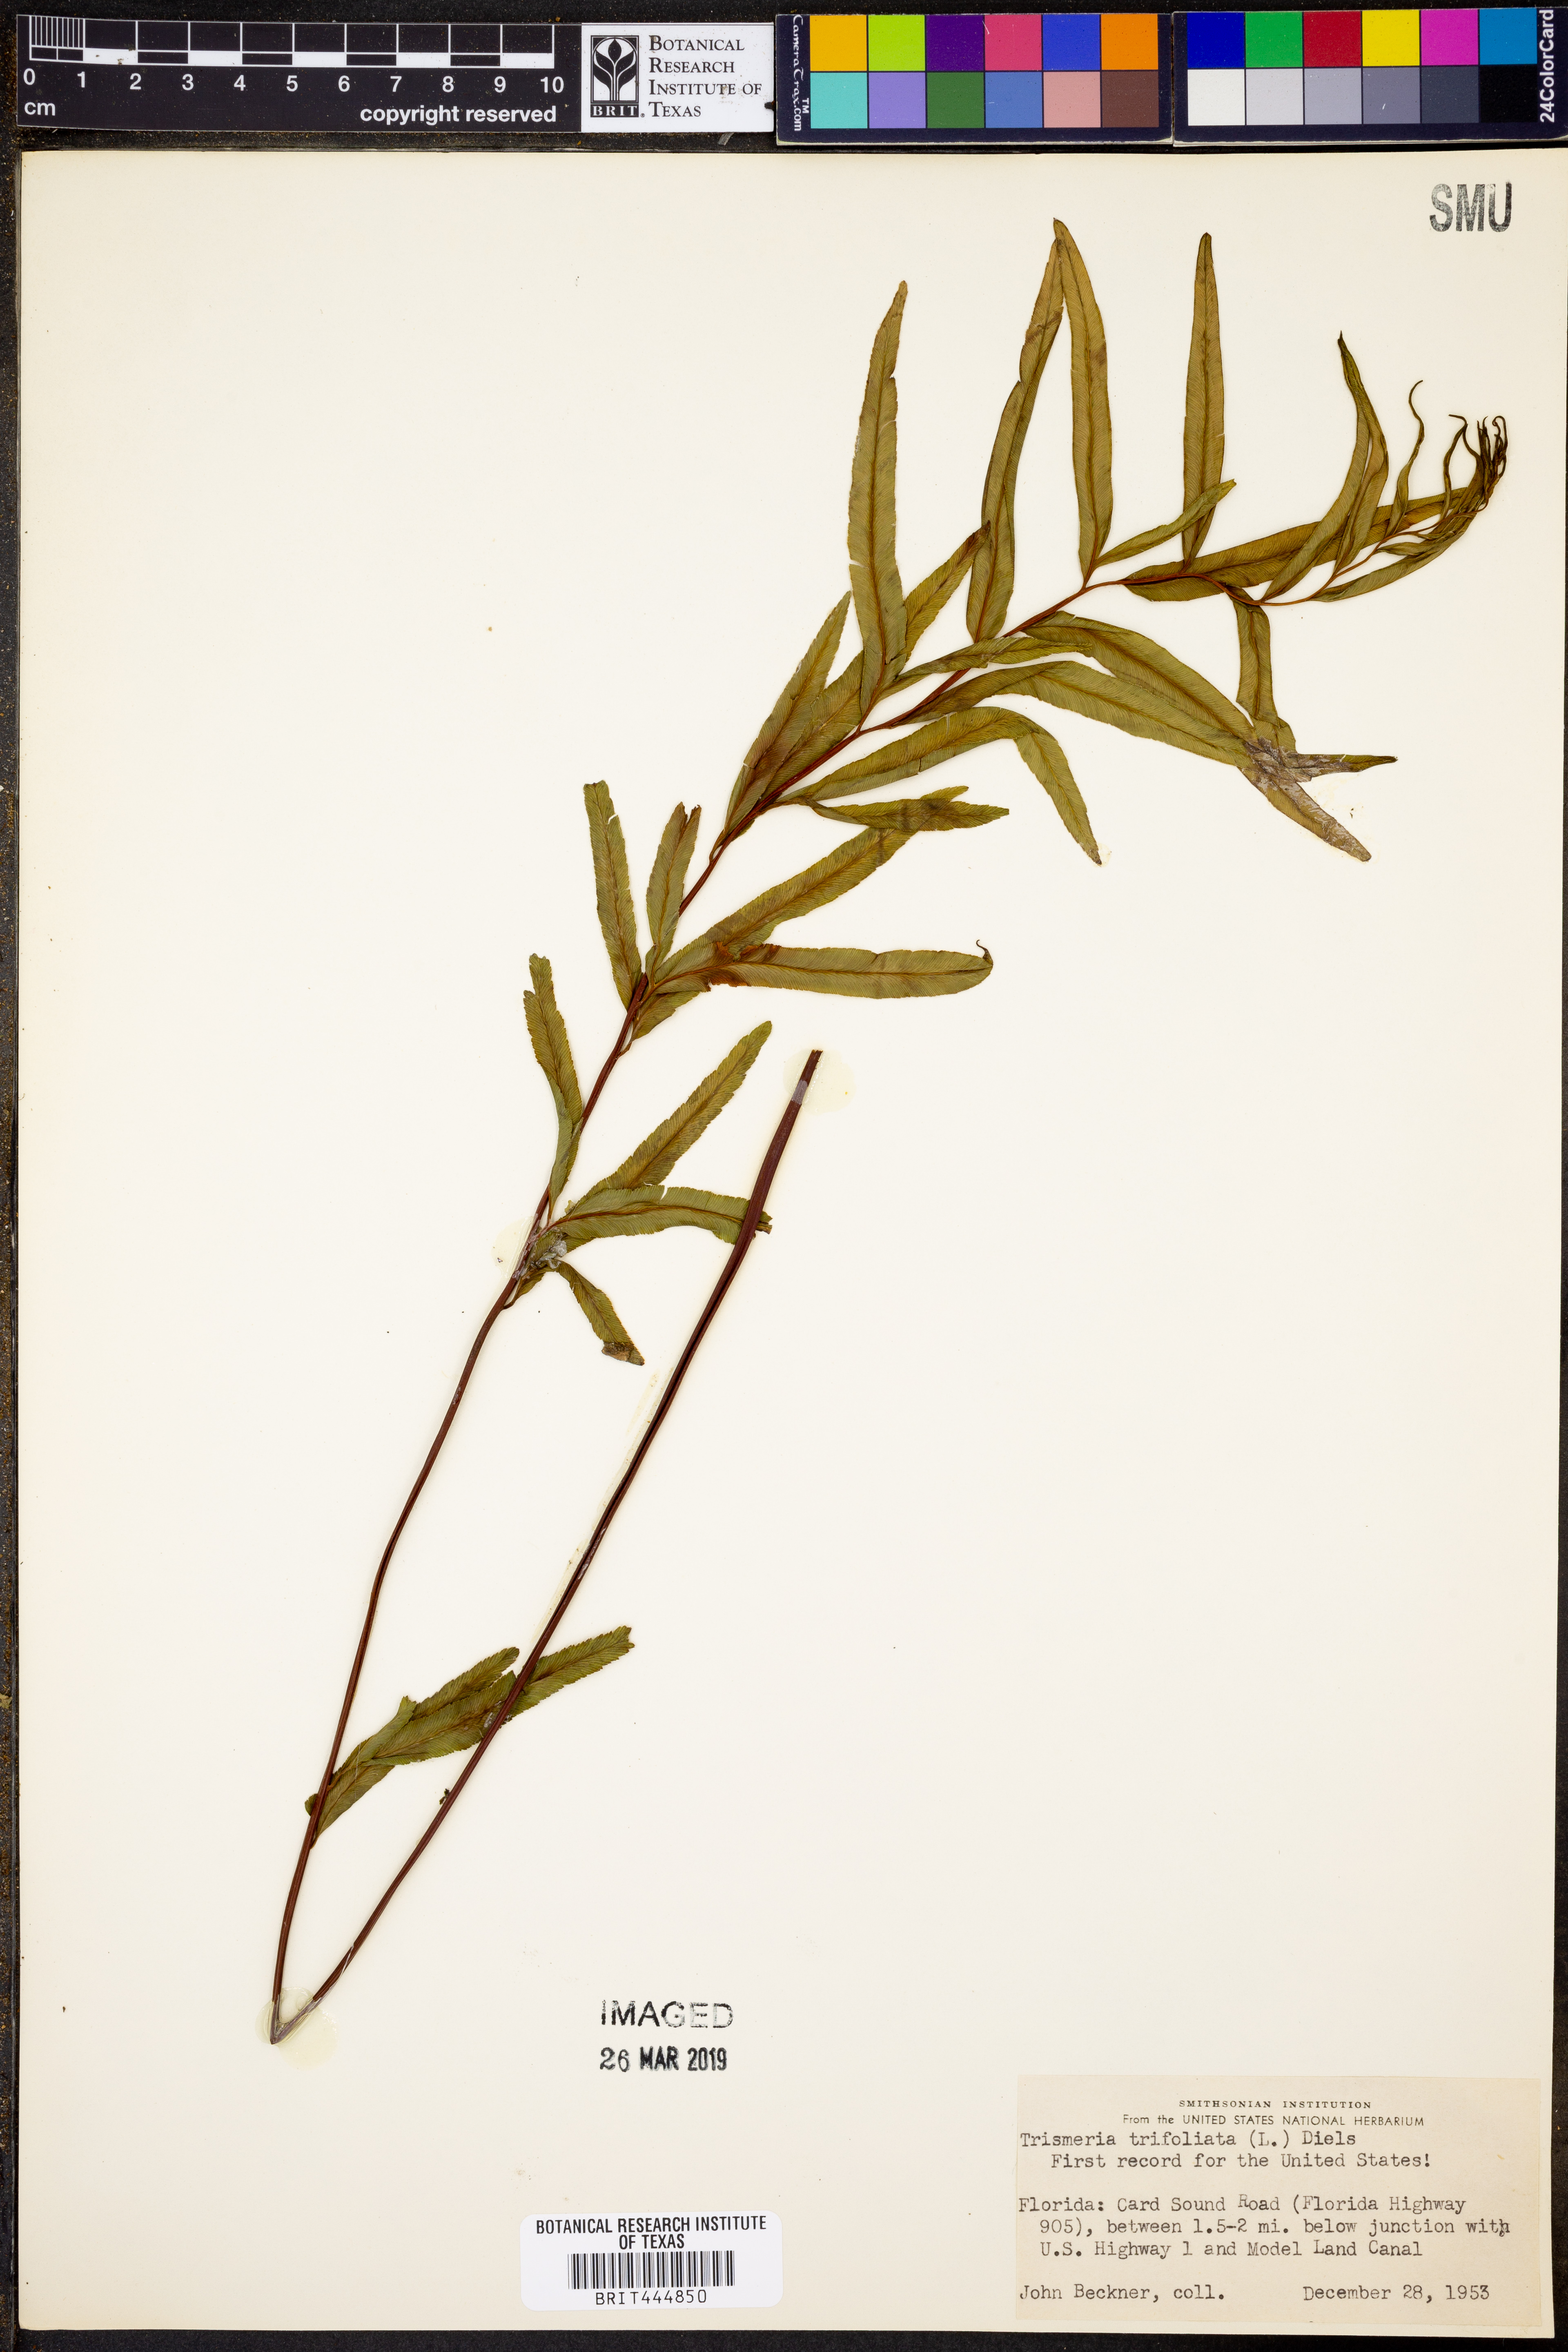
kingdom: Plantae
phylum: Tracheophyta
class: Polypodiopsida
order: Polypodiales
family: Pteridaceae
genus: Pityrogramma
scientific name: Pityrogramma trifoliata
